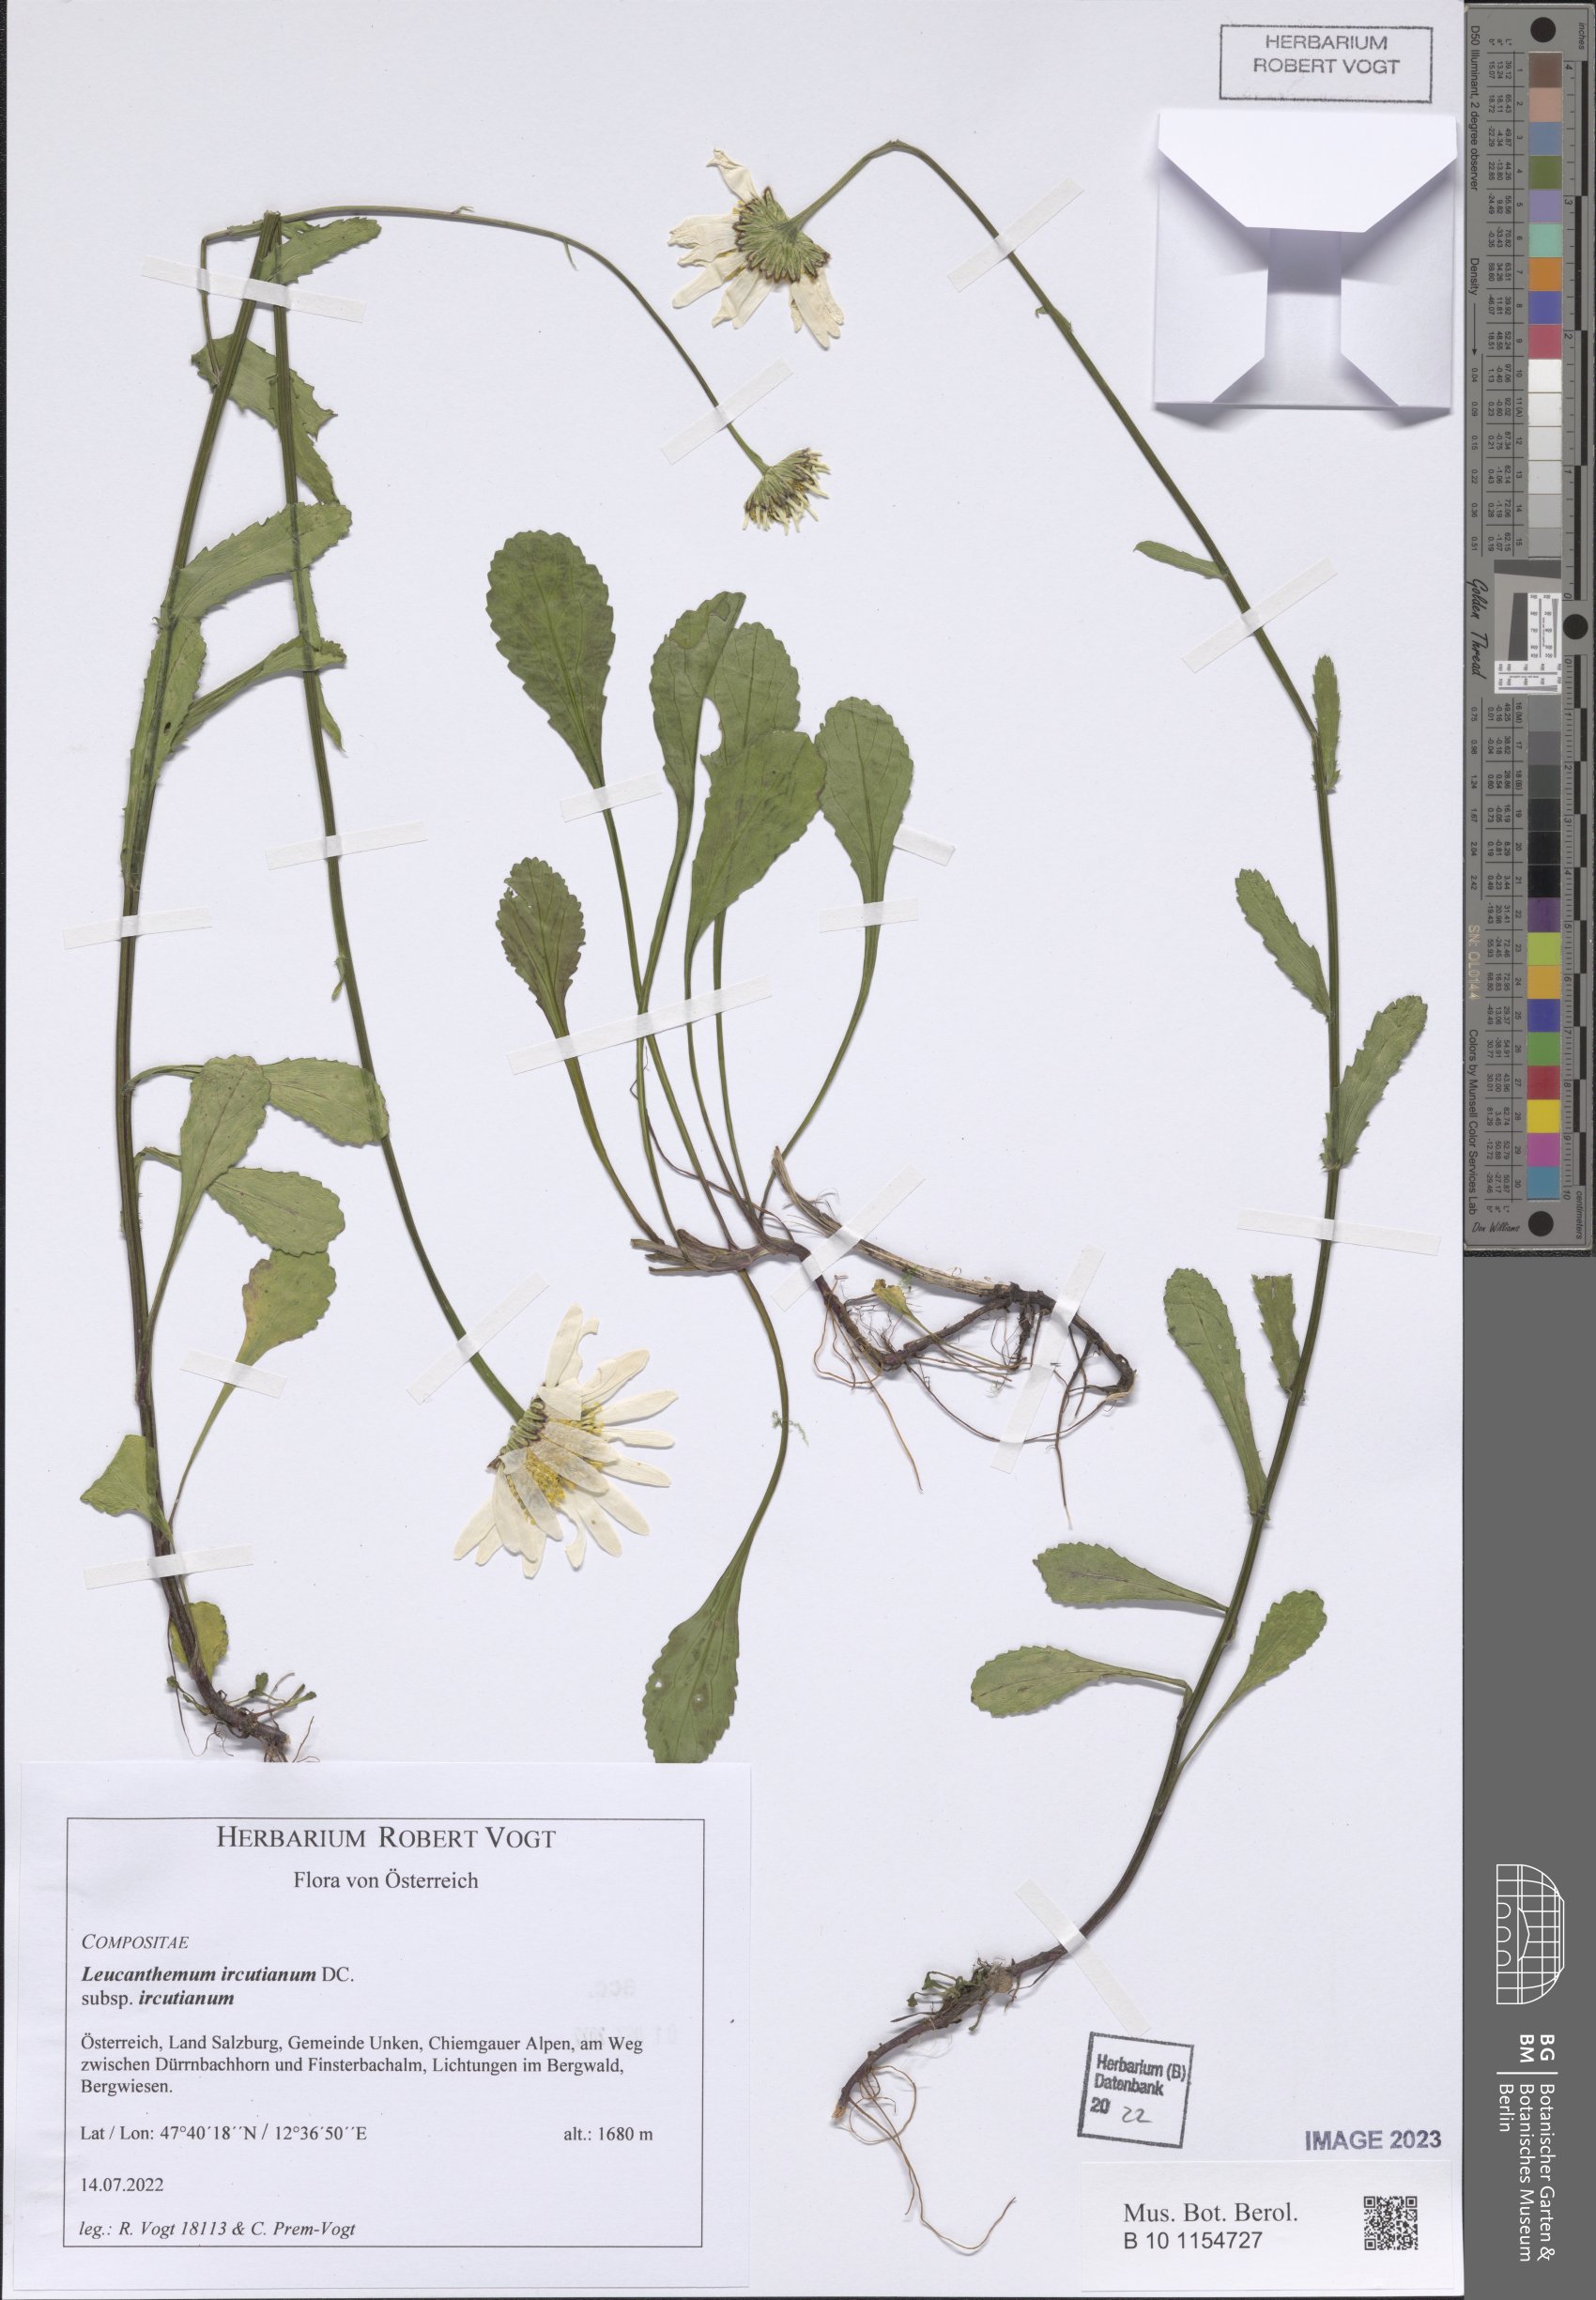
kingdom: Plantae
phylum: Tracheophyta
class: Magnoliopsida
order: Asterales
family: Asteraceae
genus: Leucanthemum
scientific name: Leucanthemum ircutianum
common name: Daisy
